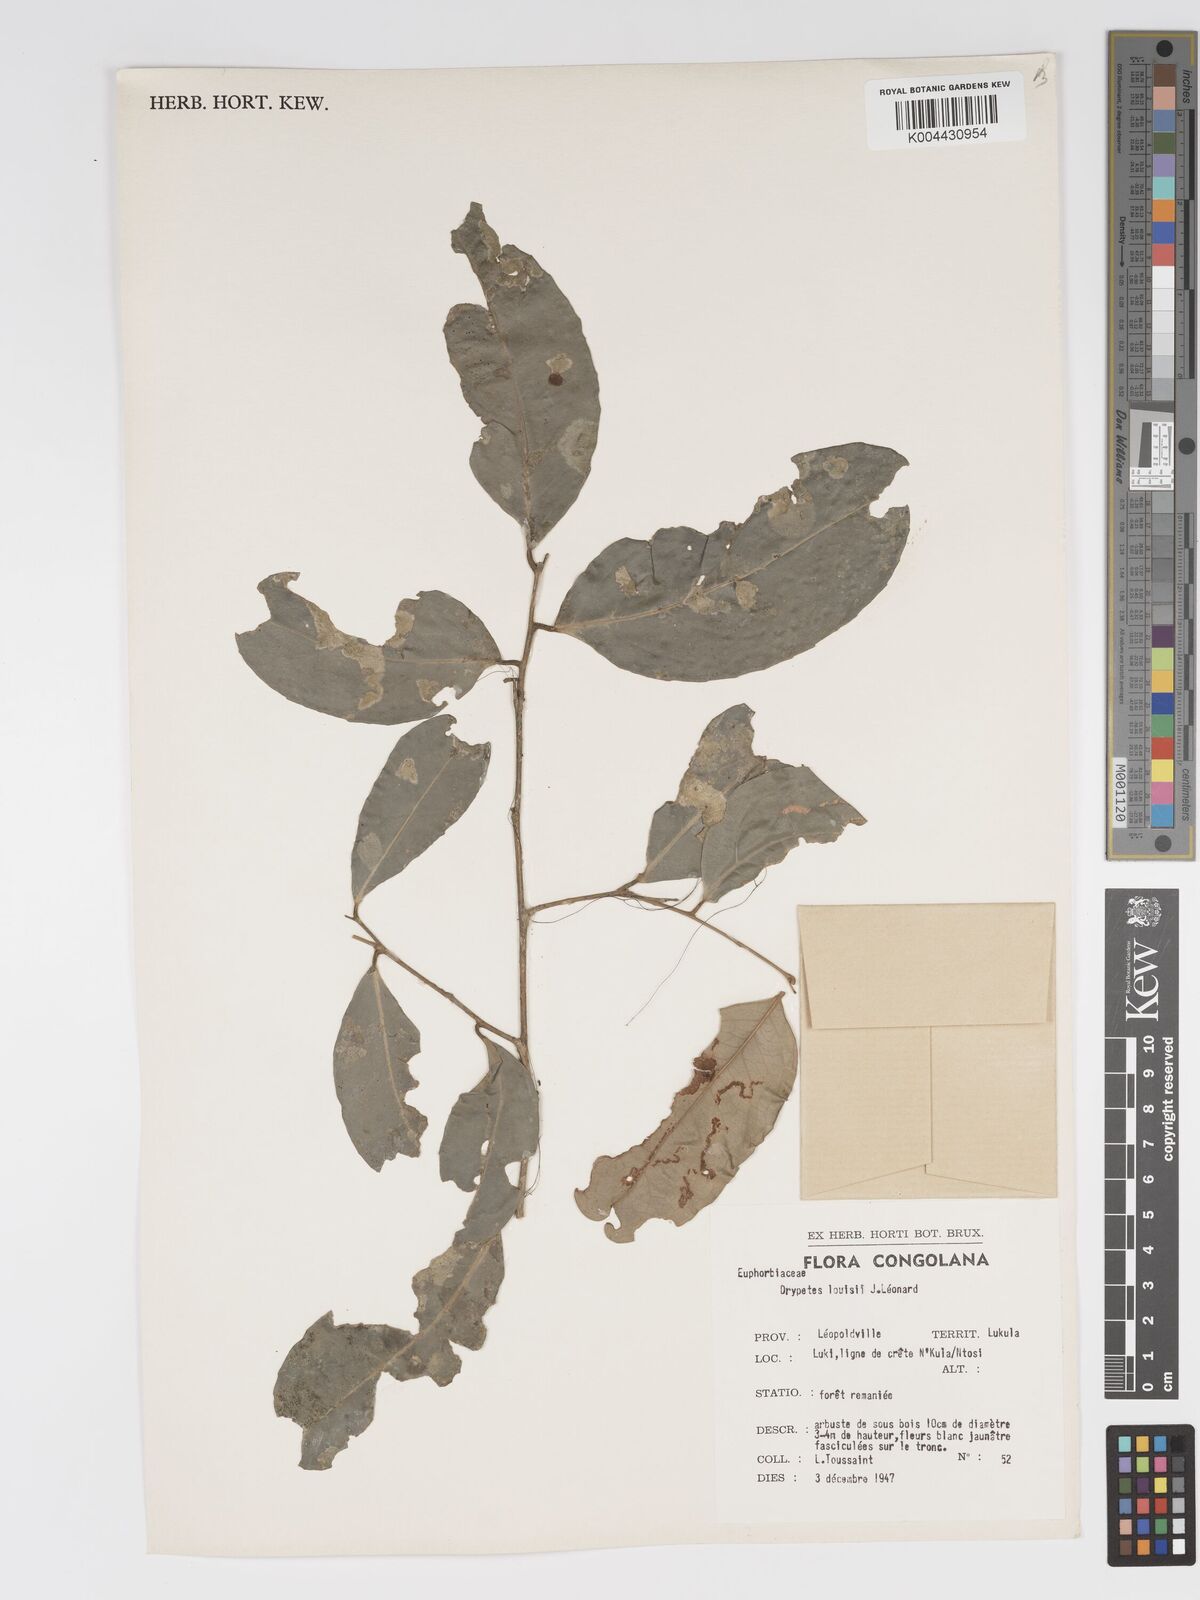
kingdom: Plantae
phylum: Tracheophyta
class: Magnoliopsida
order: Malpighiales
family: Putranjivaceae
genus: Drypetes
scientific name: Drypetes
